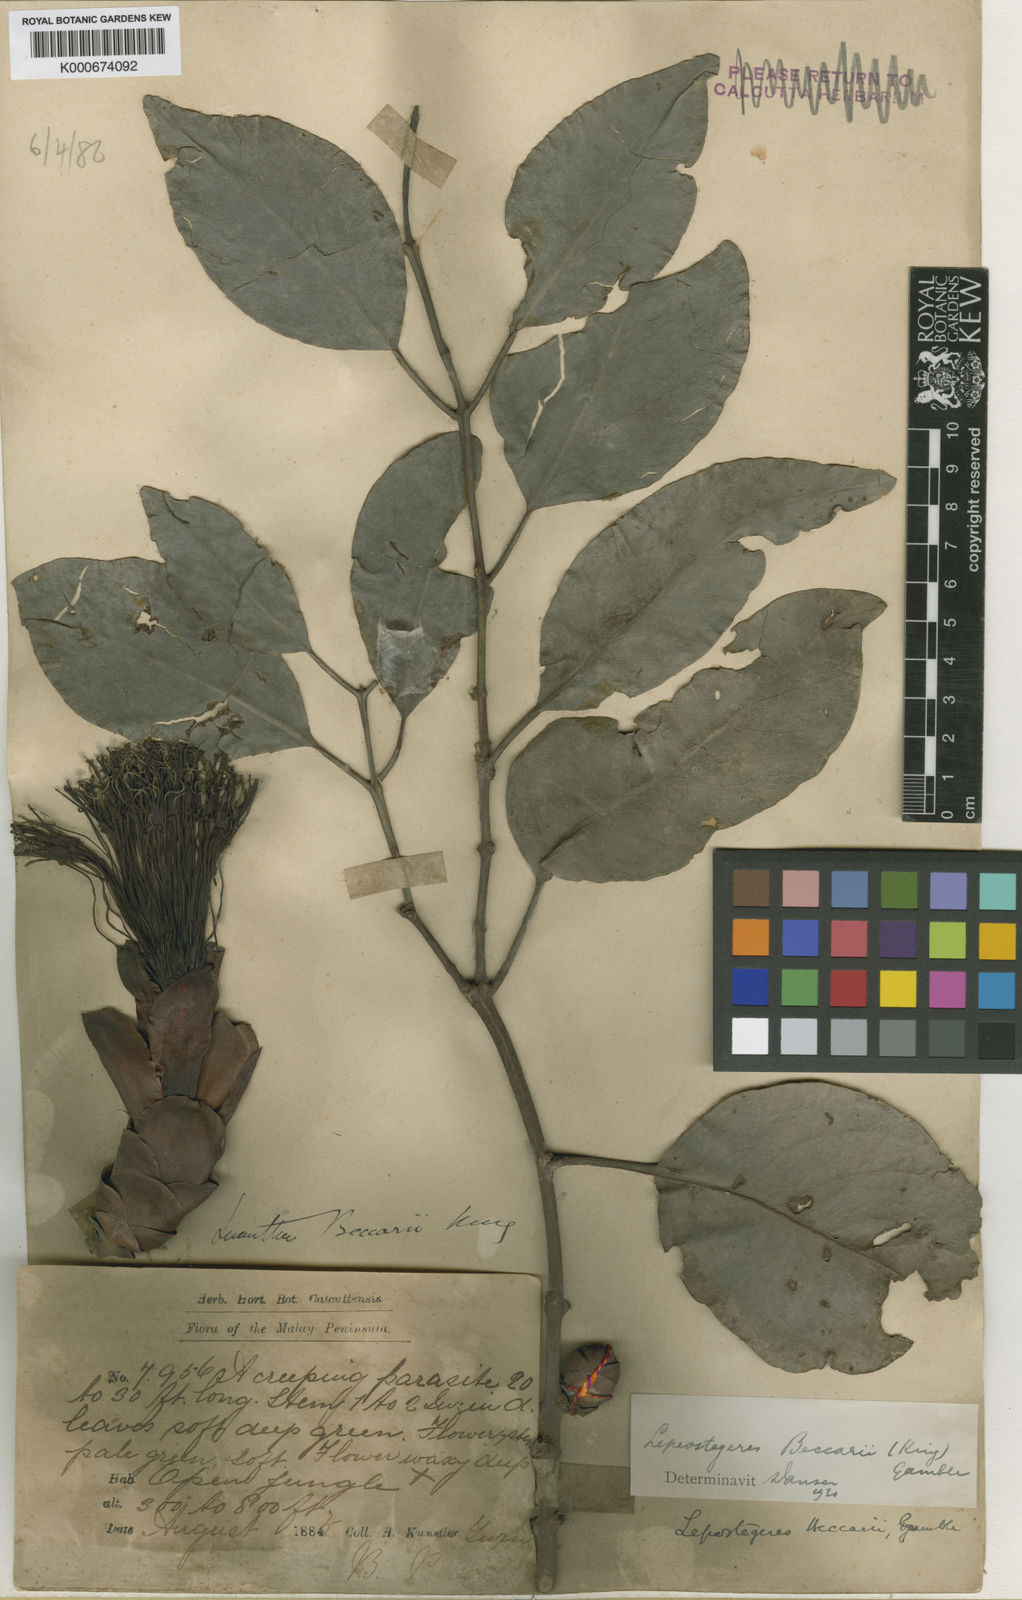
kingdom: Plantae
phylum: Tracheophyta
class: Magnoliopsida
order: Santalales
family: Loranthaceae
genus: Lepeostegeres
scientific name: Lepeostegeres beccarii
